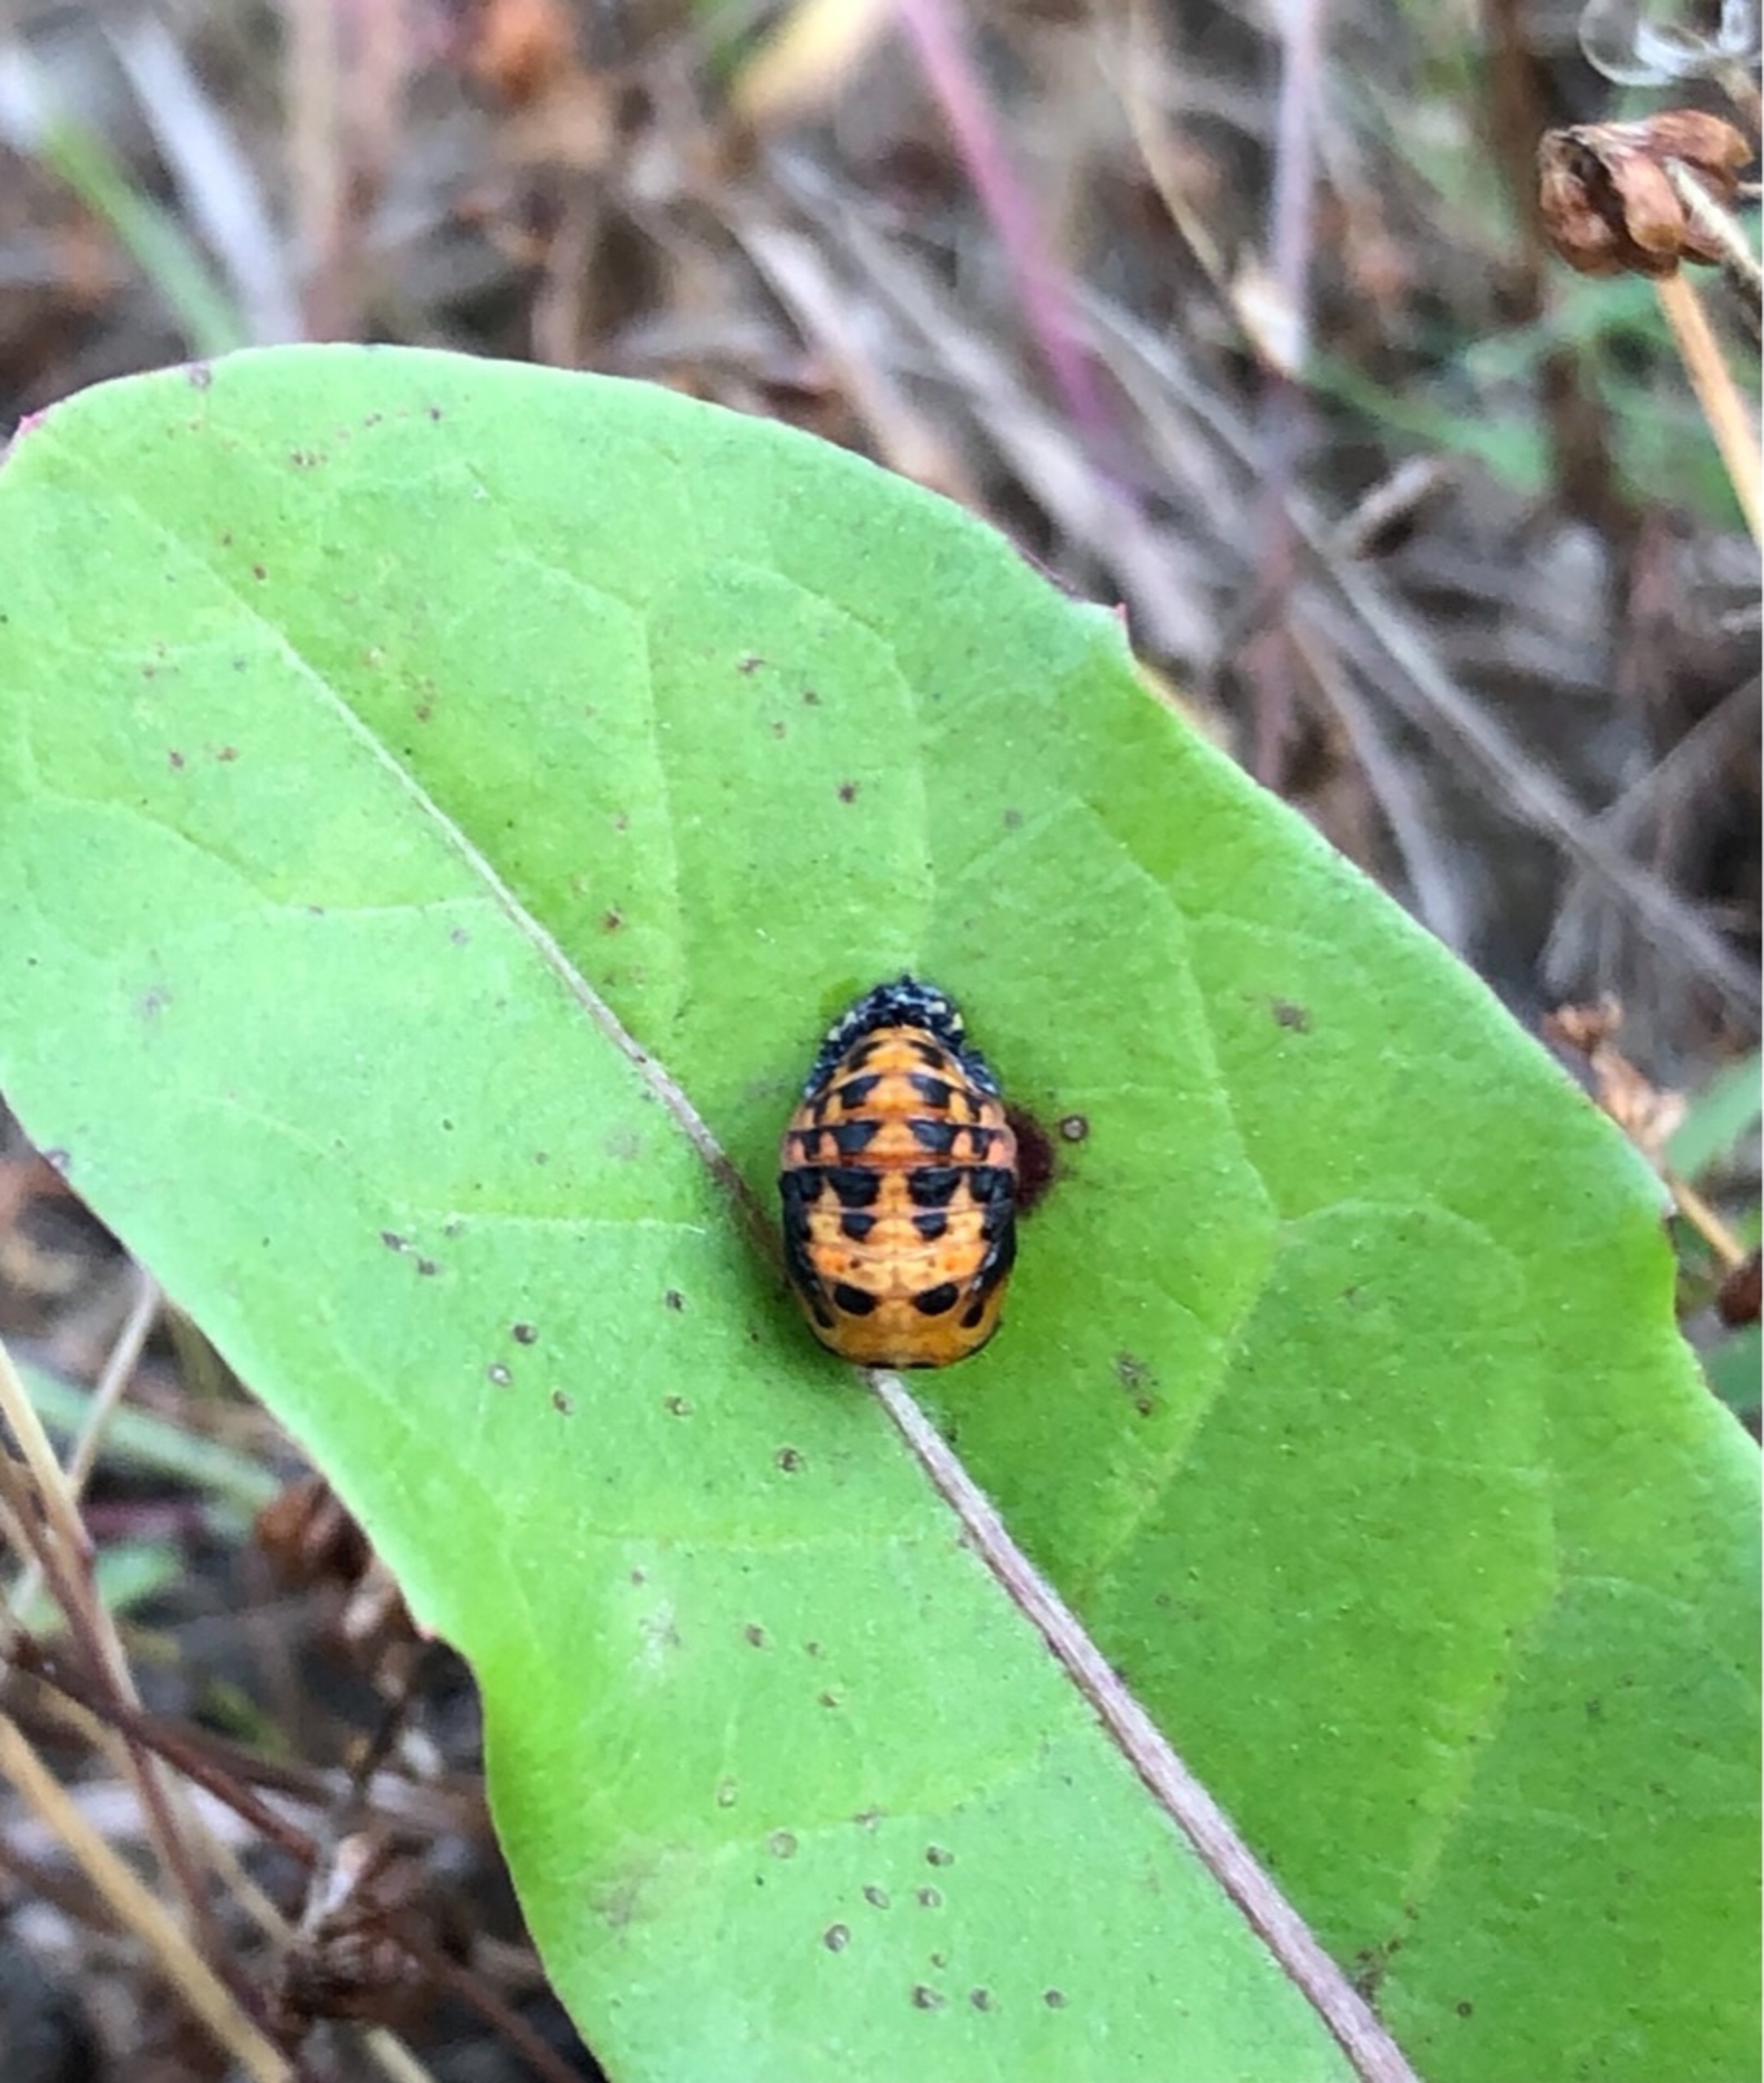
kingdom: Animalia
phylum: Arthropoda
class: Insecta
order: Coleoptera
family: Coccinellidae
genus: Coccinella
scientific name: Coccinella septempunctata
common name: Syvplettet mariehøne
